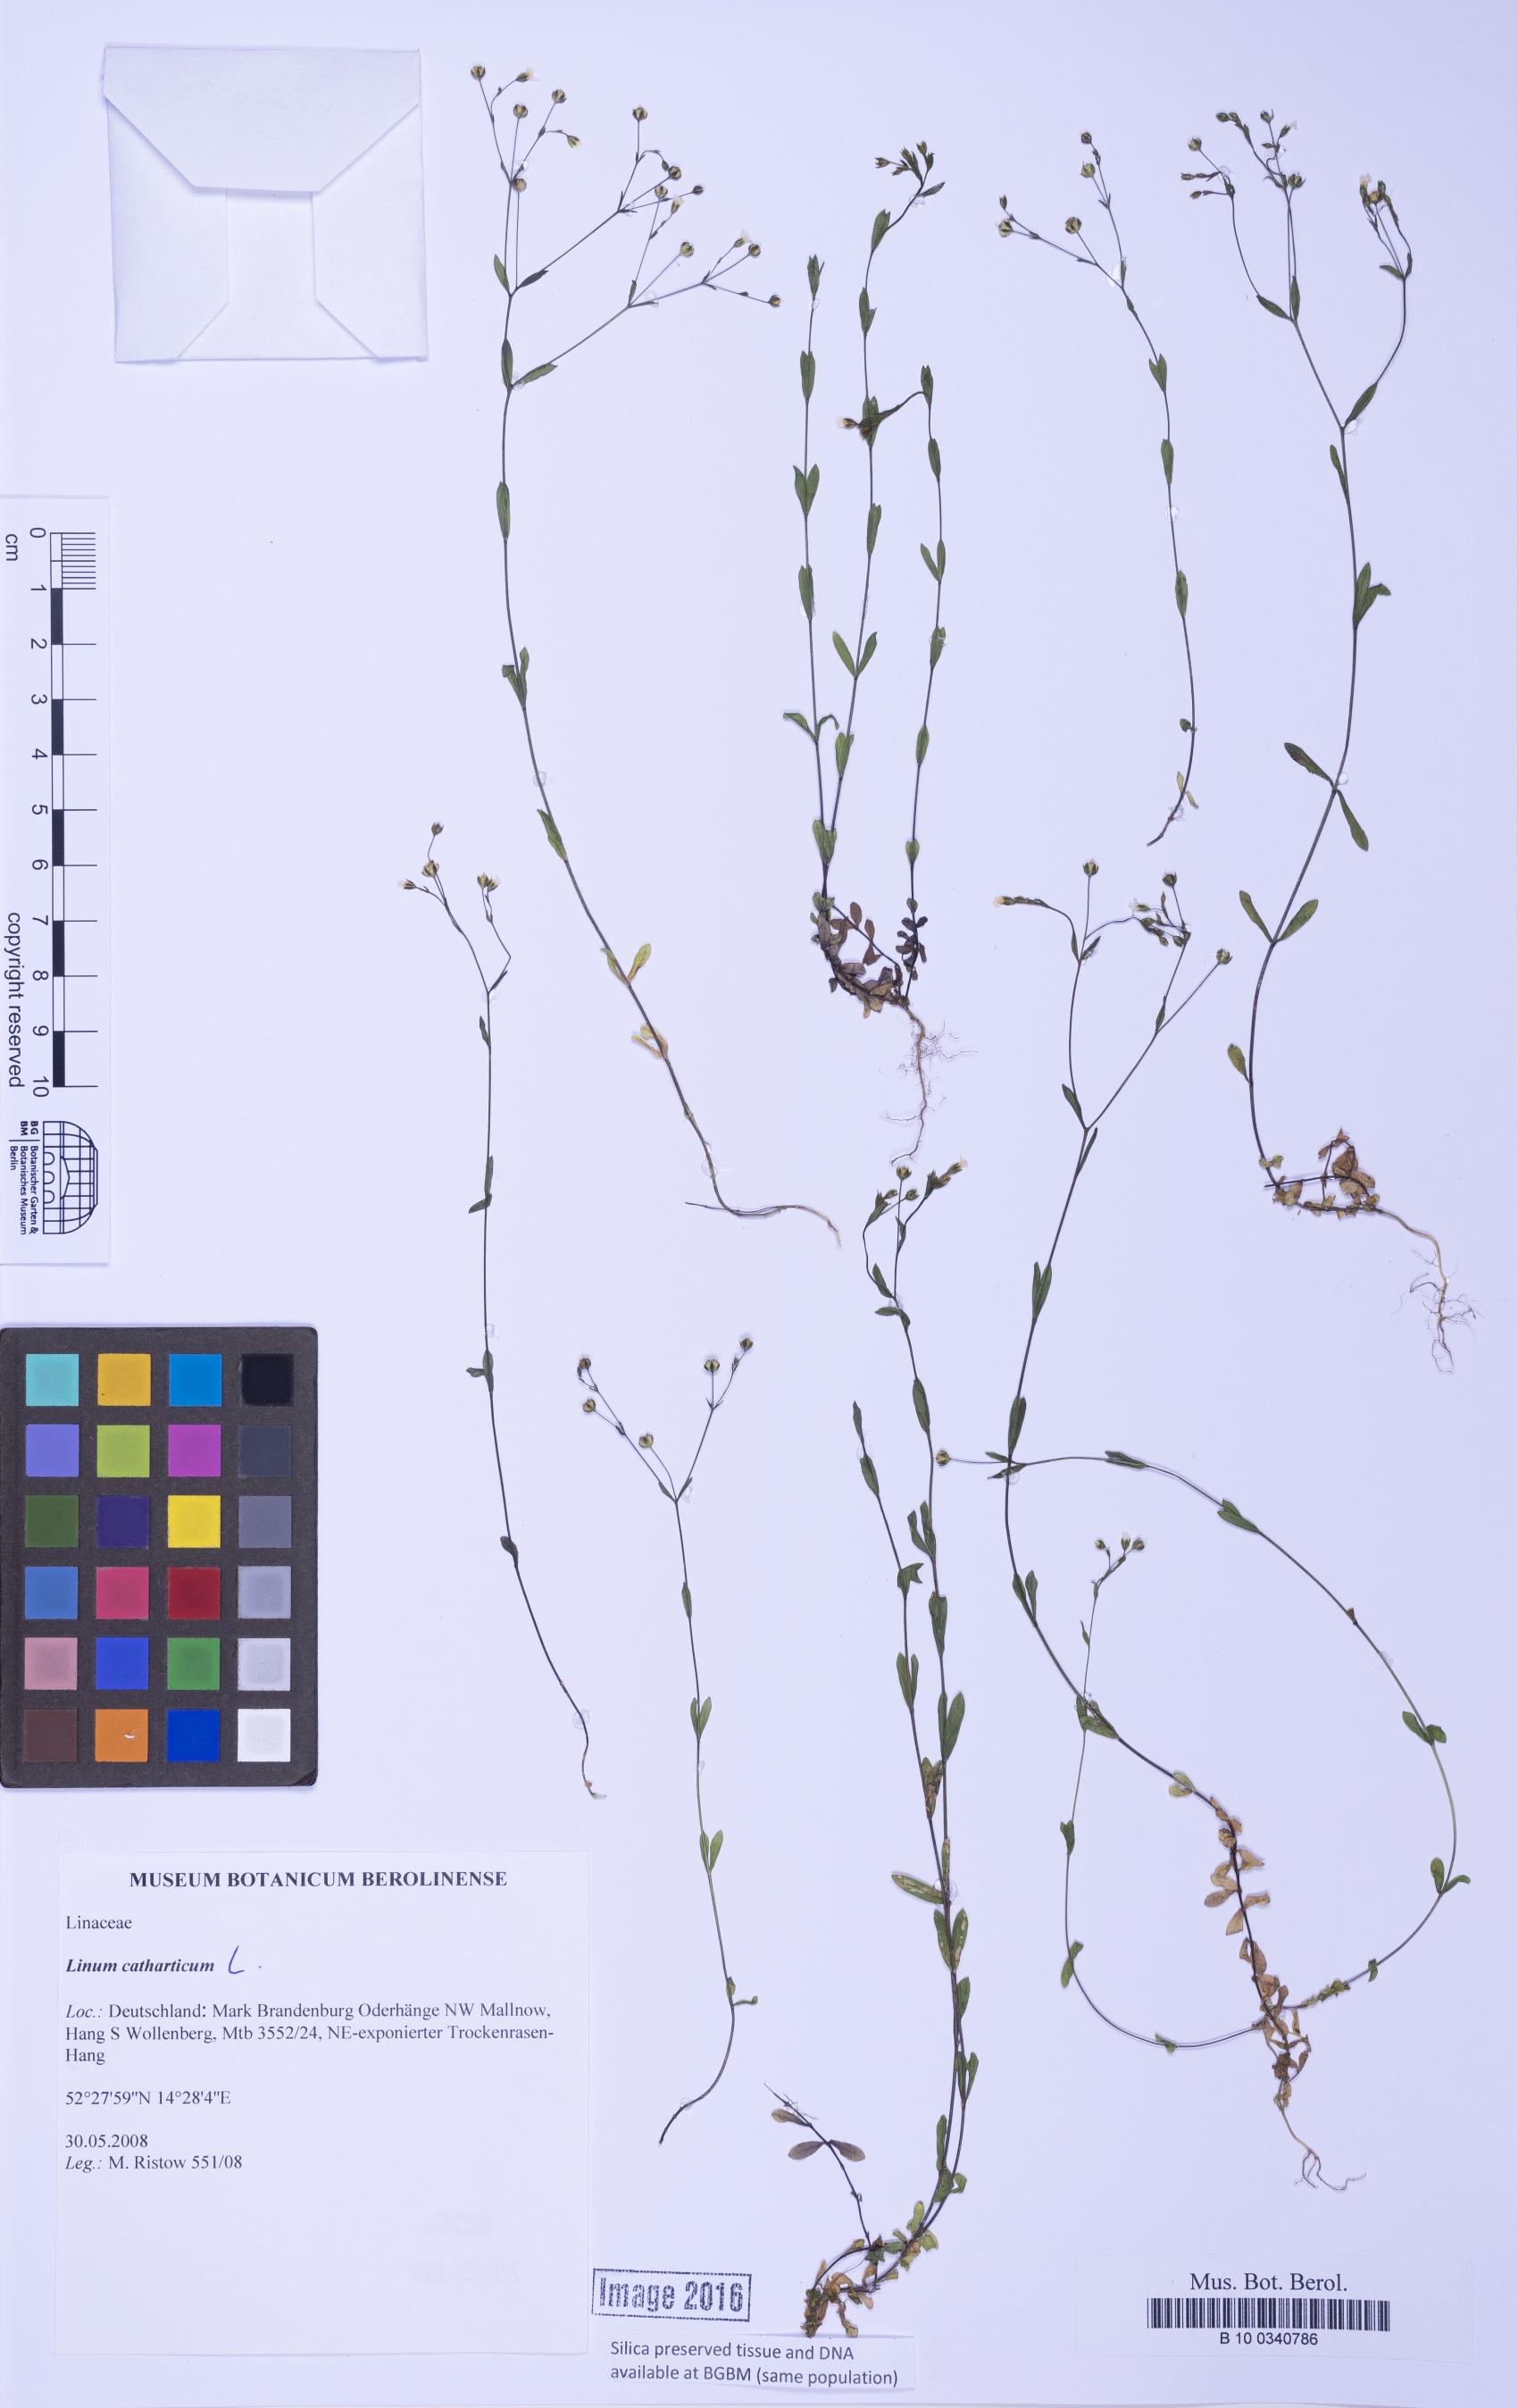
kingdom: Plantae
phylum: Tracheophyta
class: Magnoliopsida
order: Malpighiales
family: Linaceae
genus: Linum
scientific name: Linum catharticum
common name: Fairy flax
